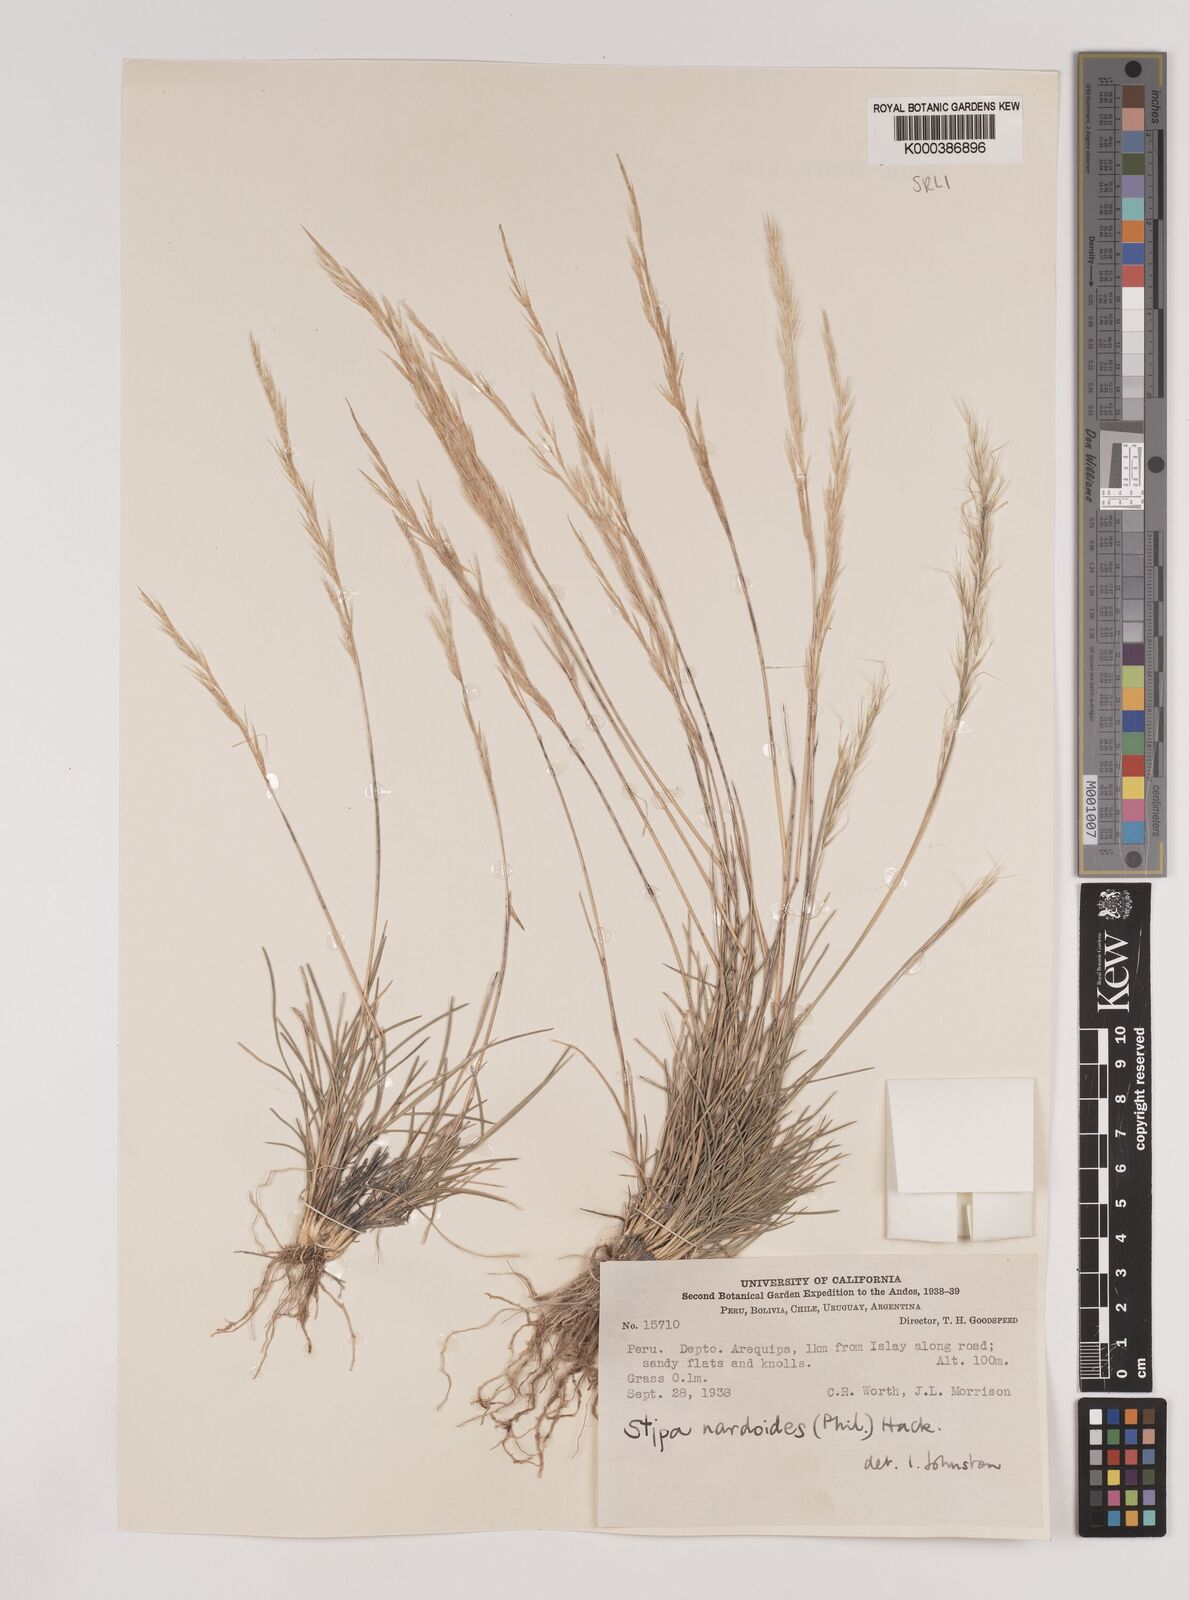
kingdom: Plantae
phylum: Tracheophyta
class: Liliopsida
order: Poales
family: Poaceae
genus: Nassella
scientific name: Nassella nardoides
